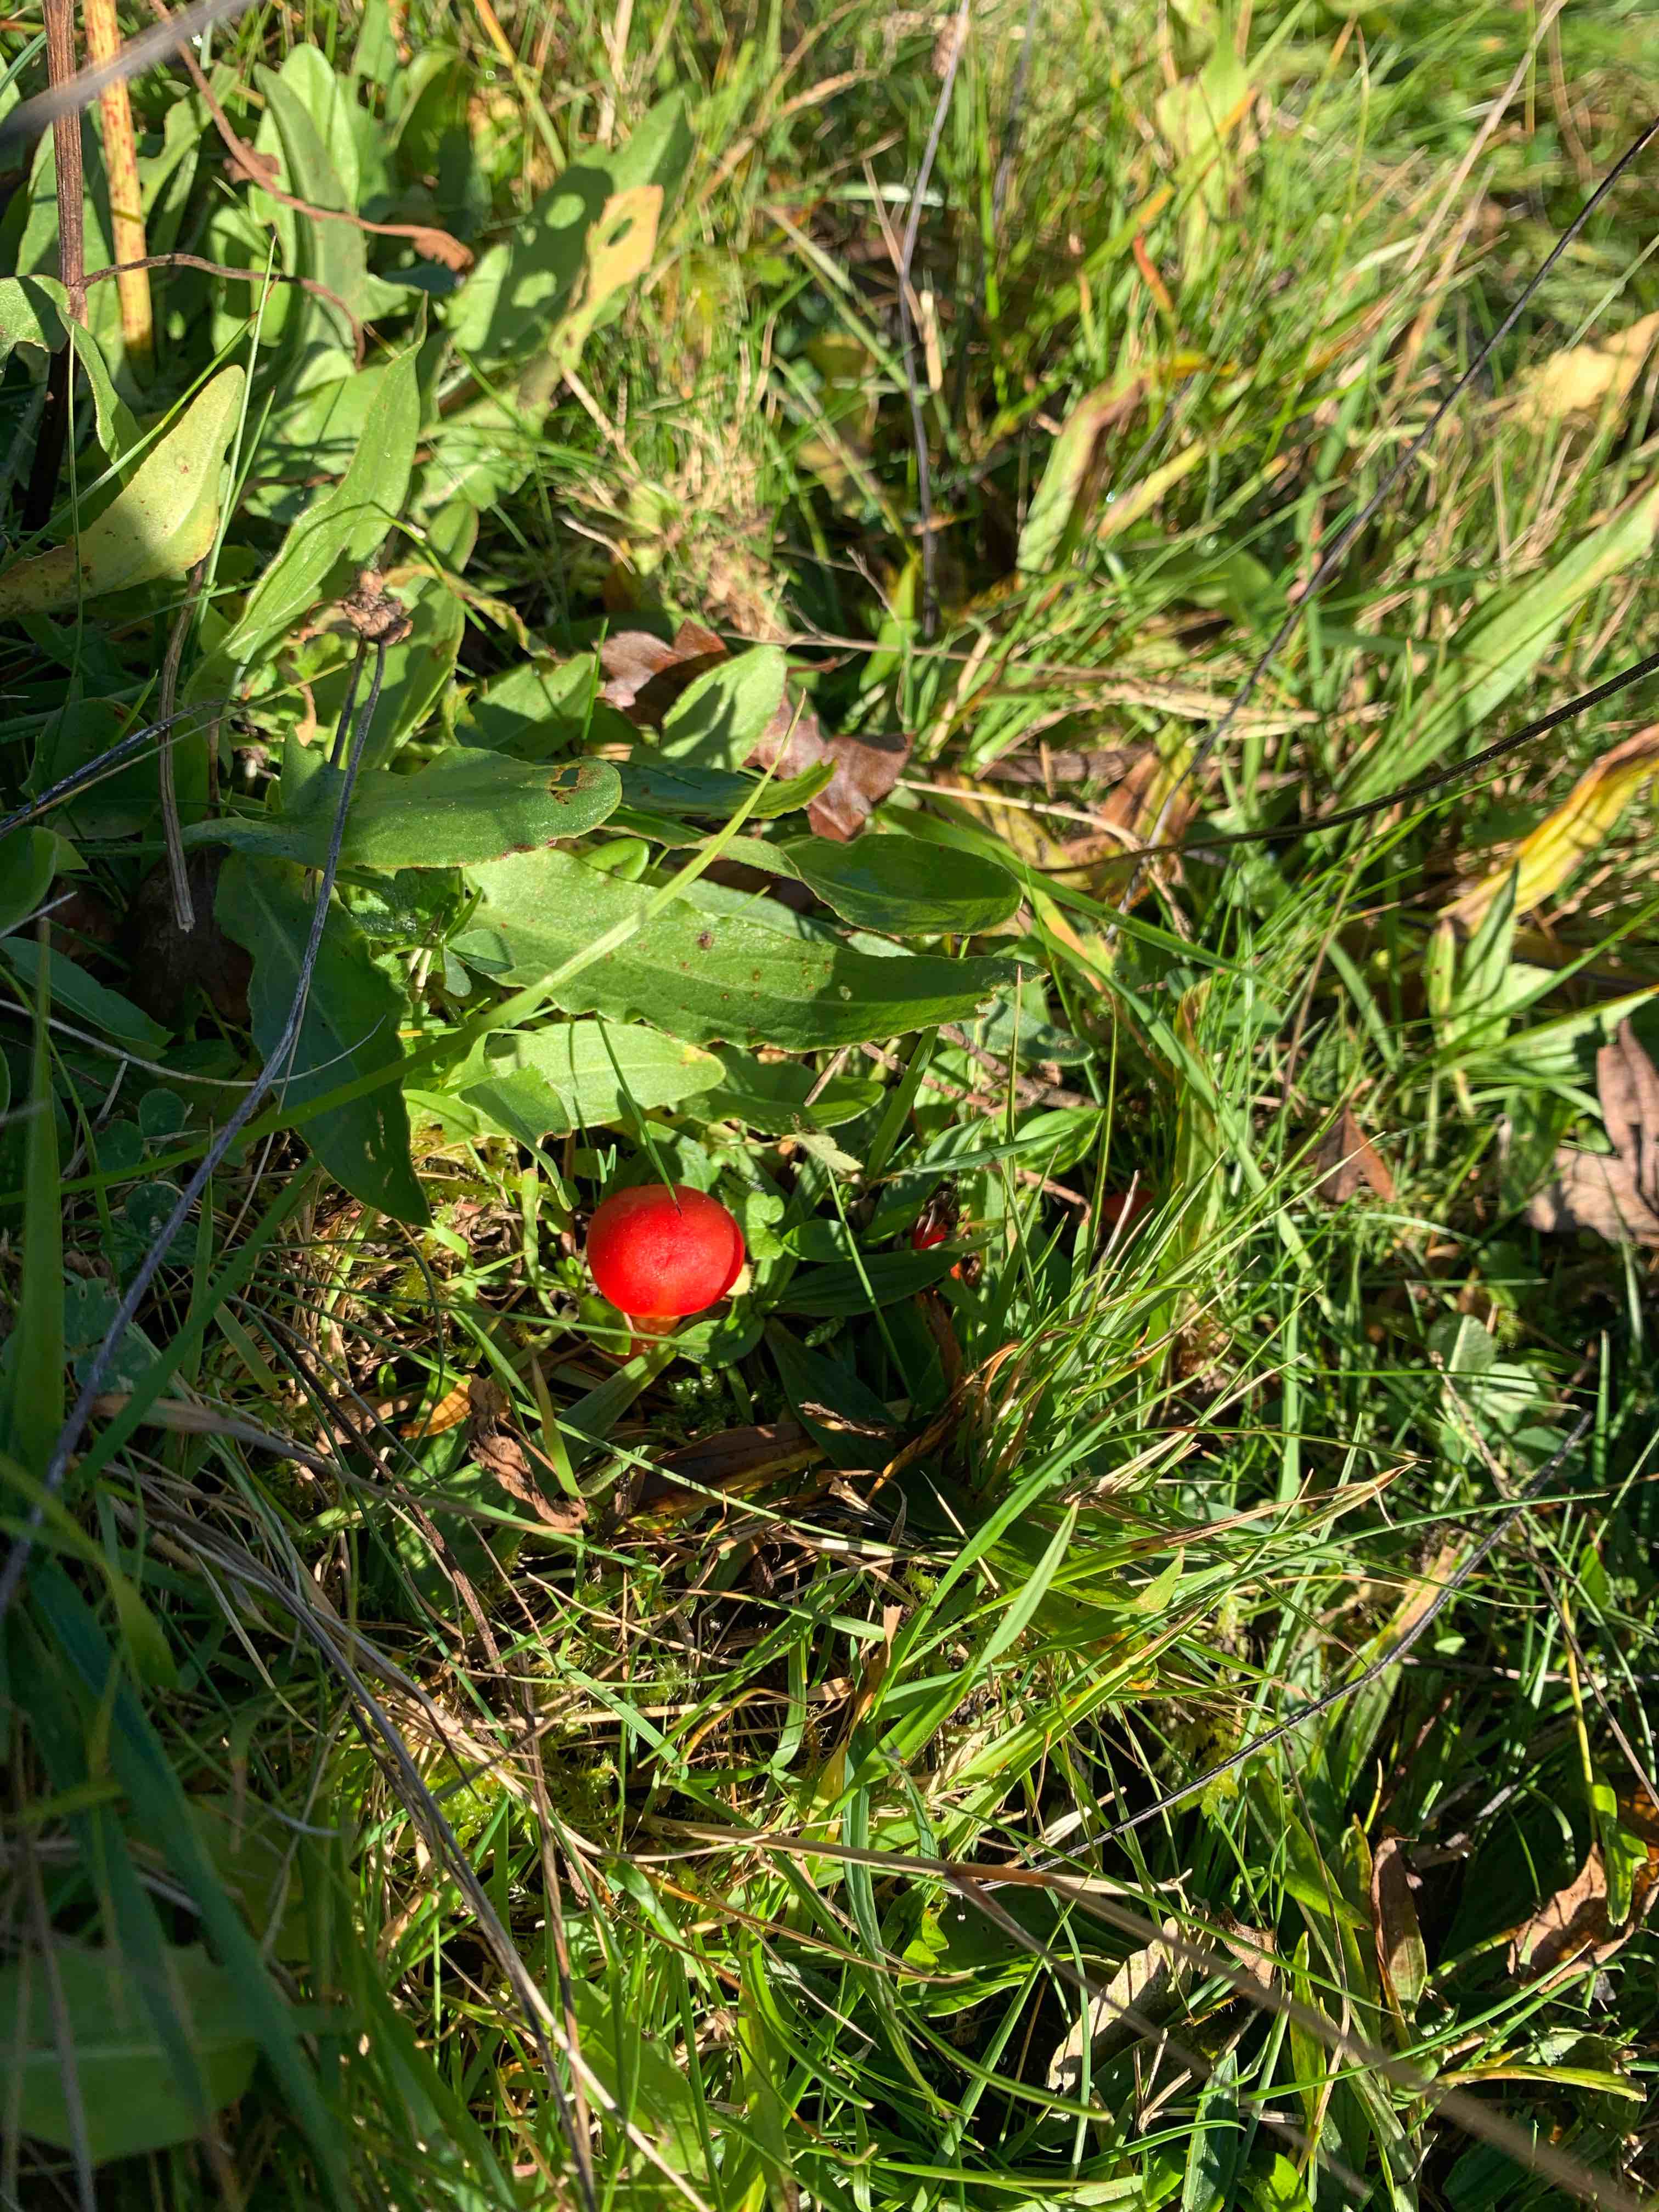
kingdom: Fungi
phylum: Basidiomycota
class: Agaricomycetes
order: Agaricales
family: Hygrophoraceae
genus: Hygrocybe
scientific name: Hygrocybe coccinea
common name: cinnober-vokshat
